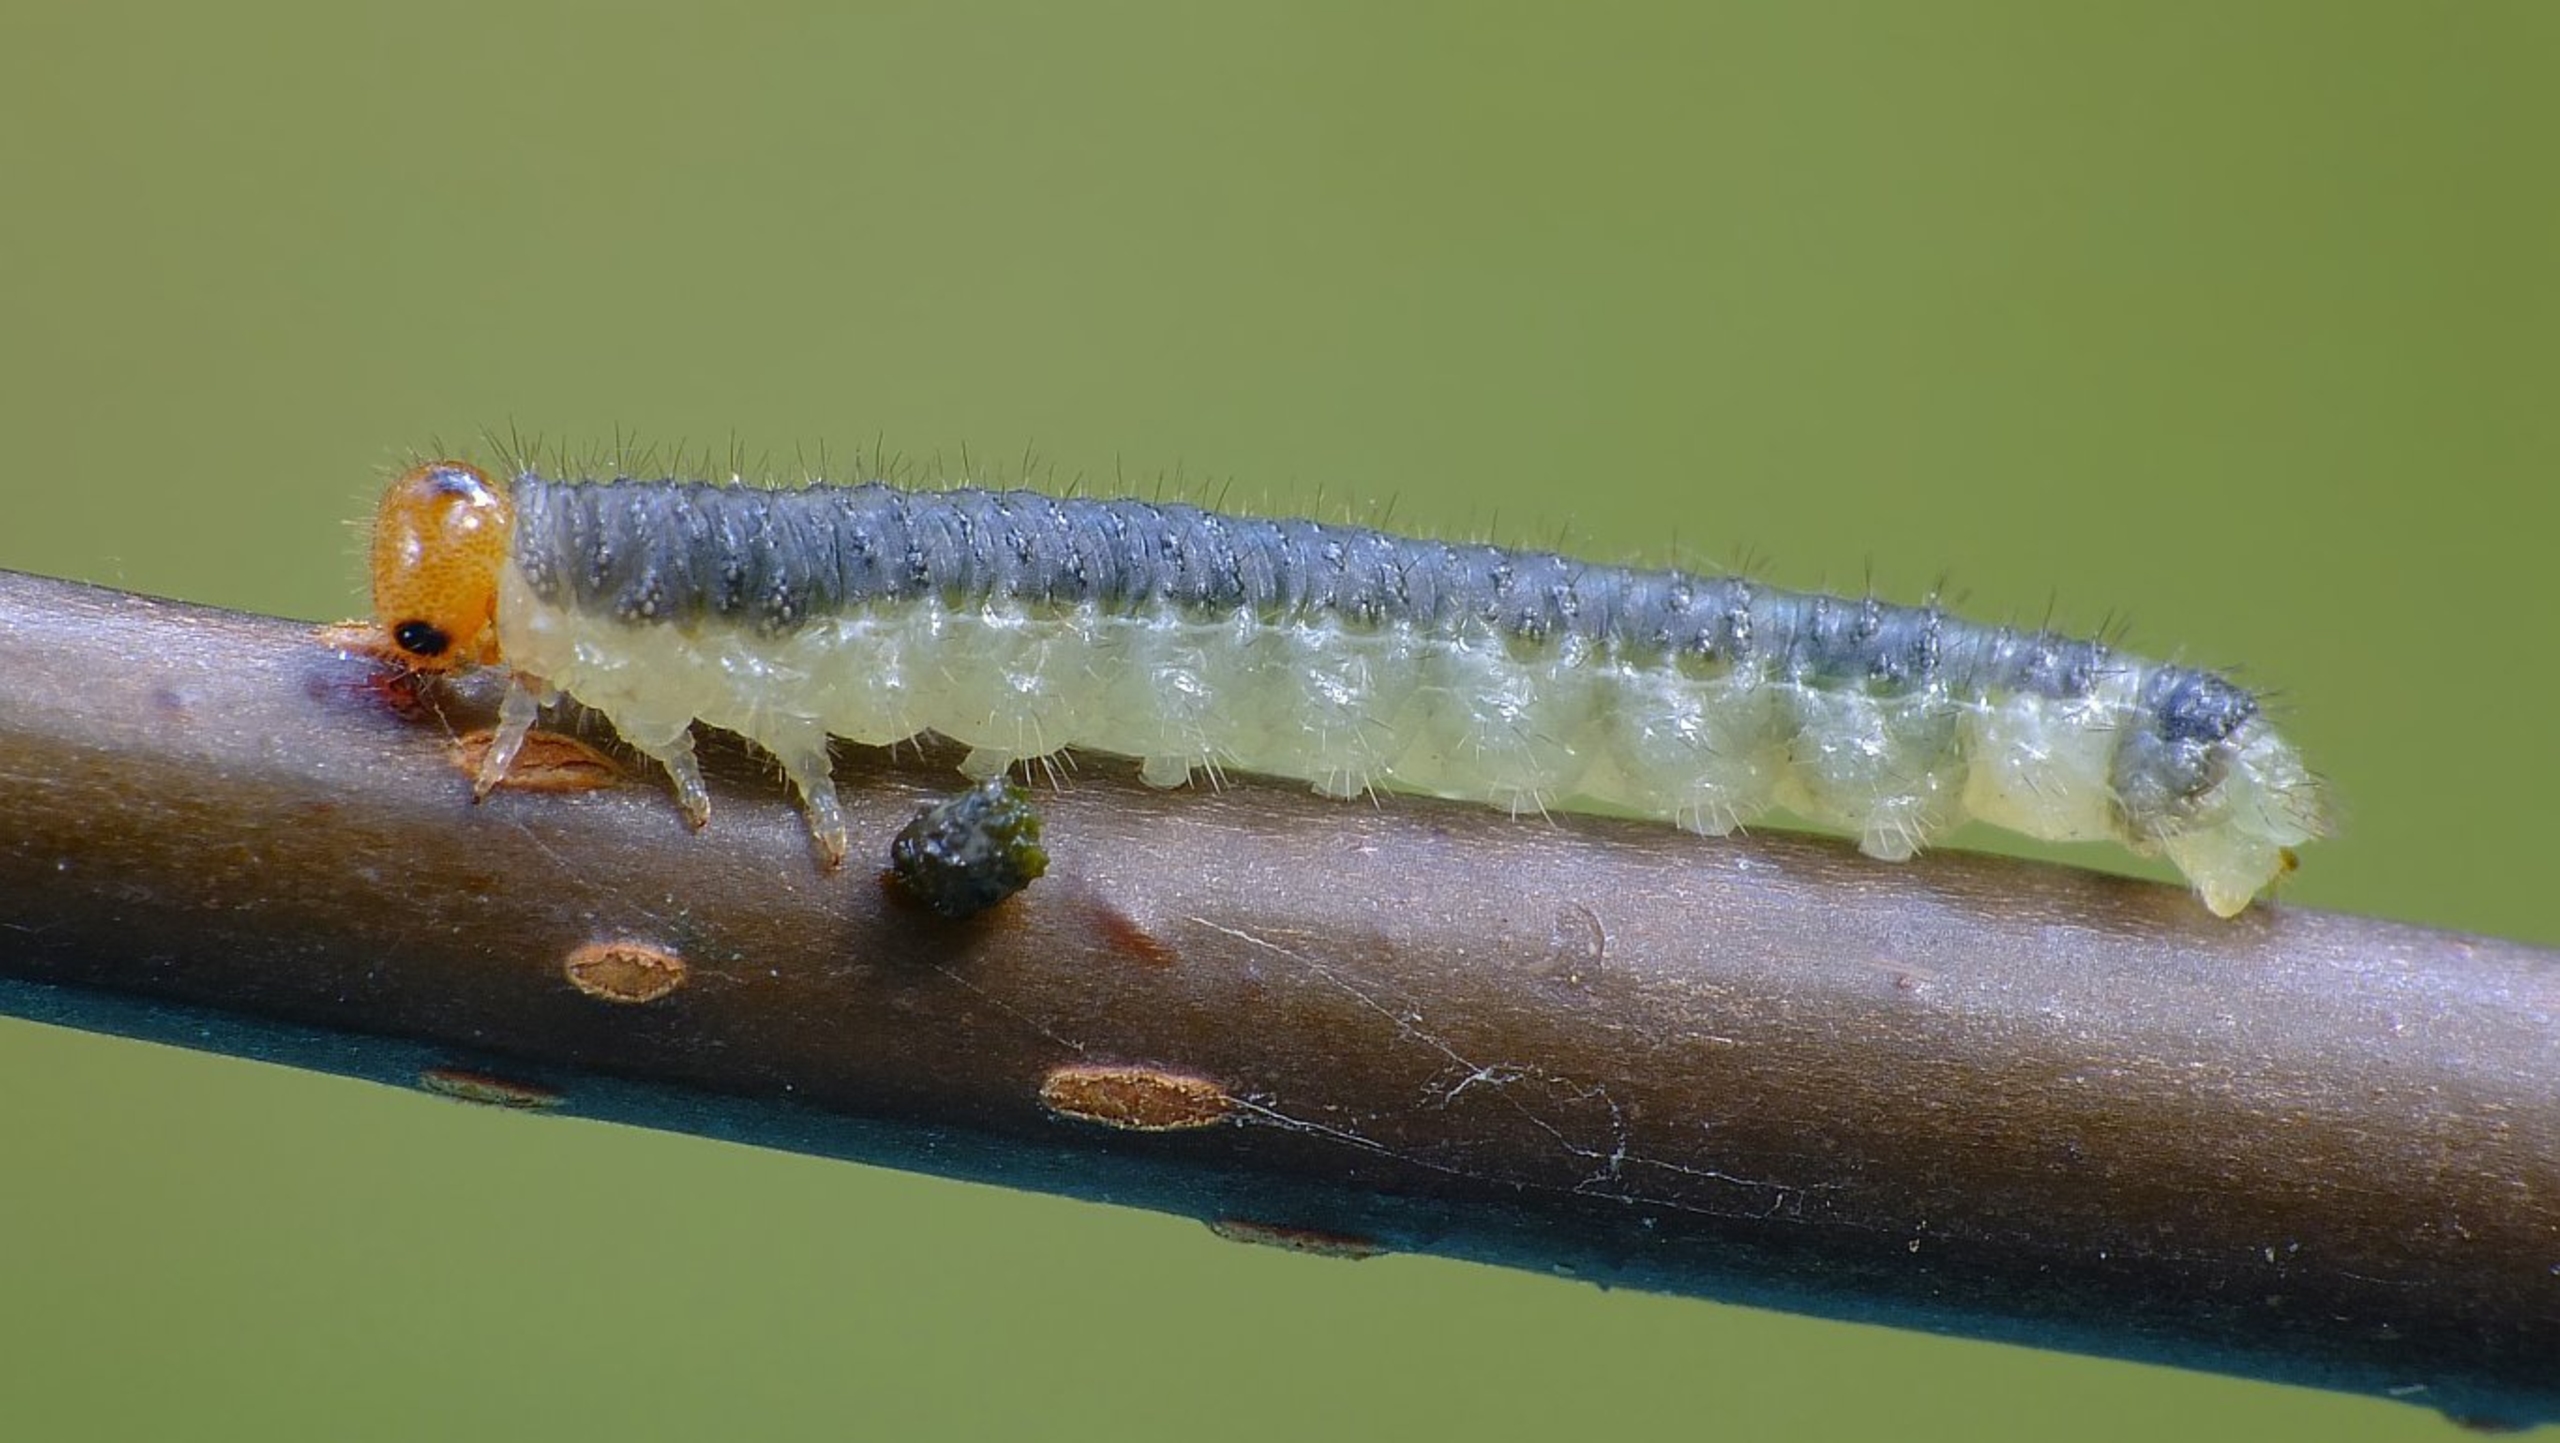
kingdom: Animalia
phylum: Arthropoda
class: Insecta
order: Hymenoptera
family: Tenthredinidae
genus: Cladius
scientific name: Cladius compressicornis
